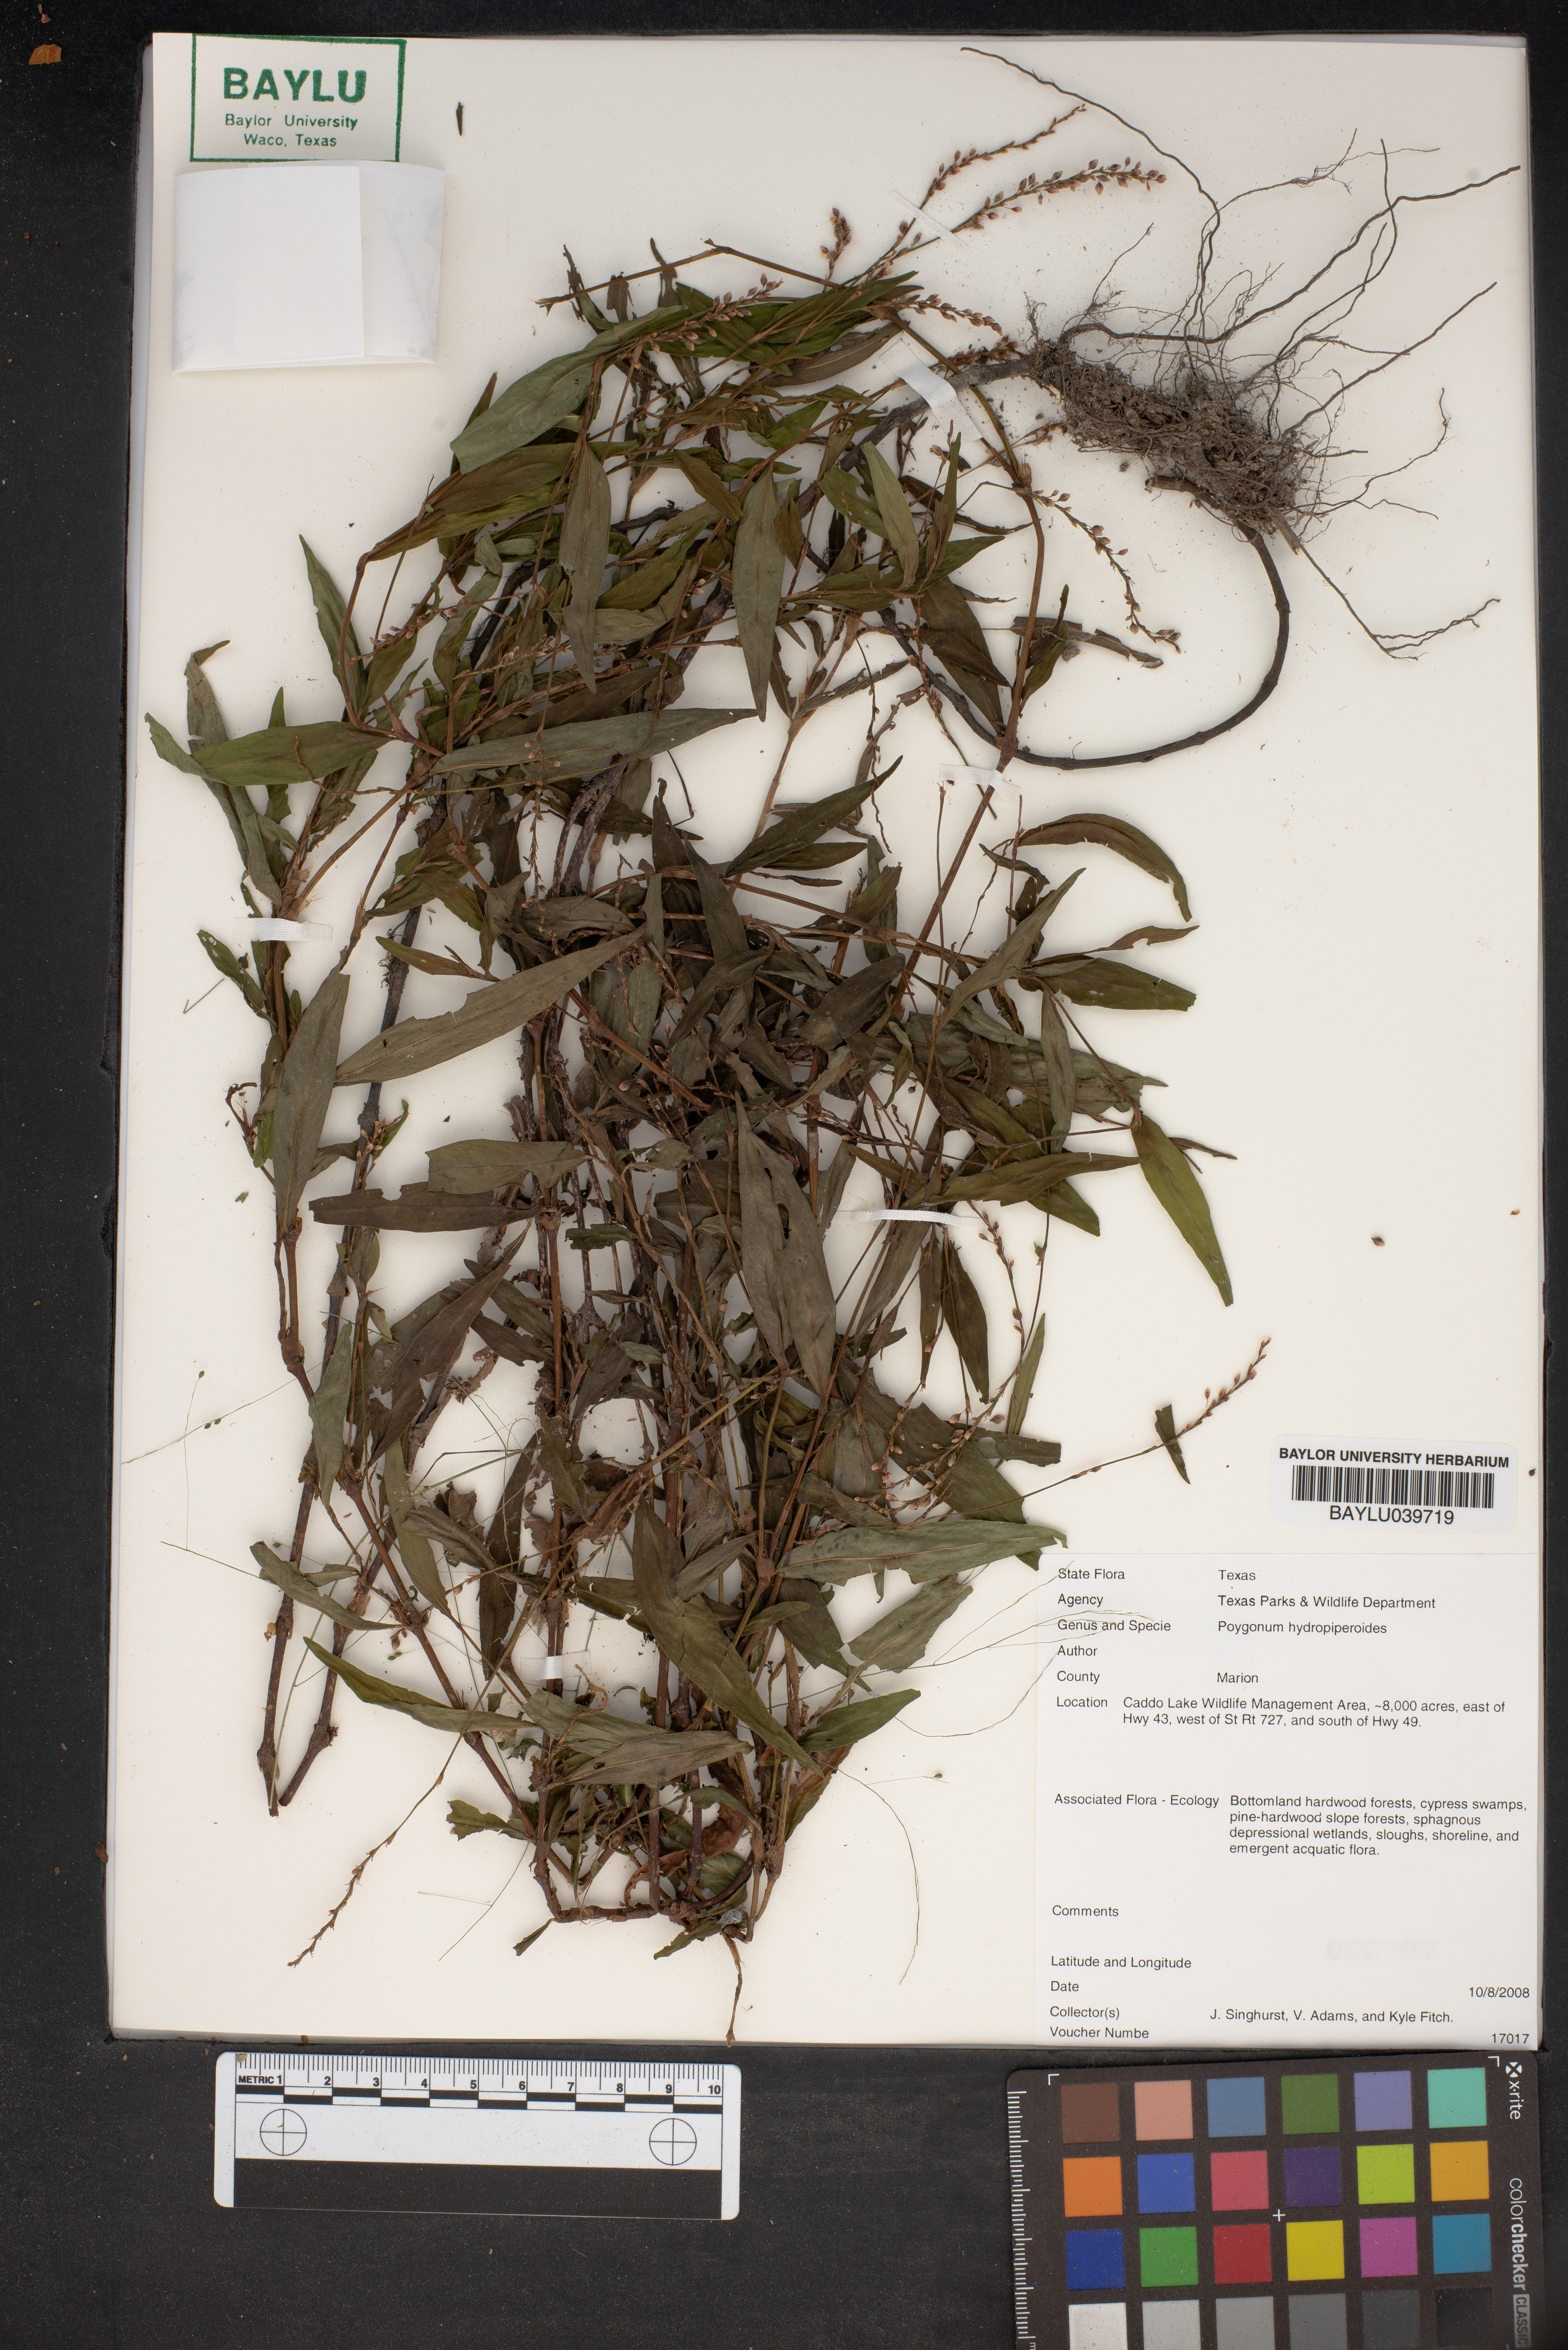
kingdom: Plantae
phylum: Tracheophyta
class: Magnoliopsida
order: Caryophyllales
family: Polygonaceae
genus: Persicaria
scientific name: Persicaria hydropiperoides
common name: Swamp smartweed
